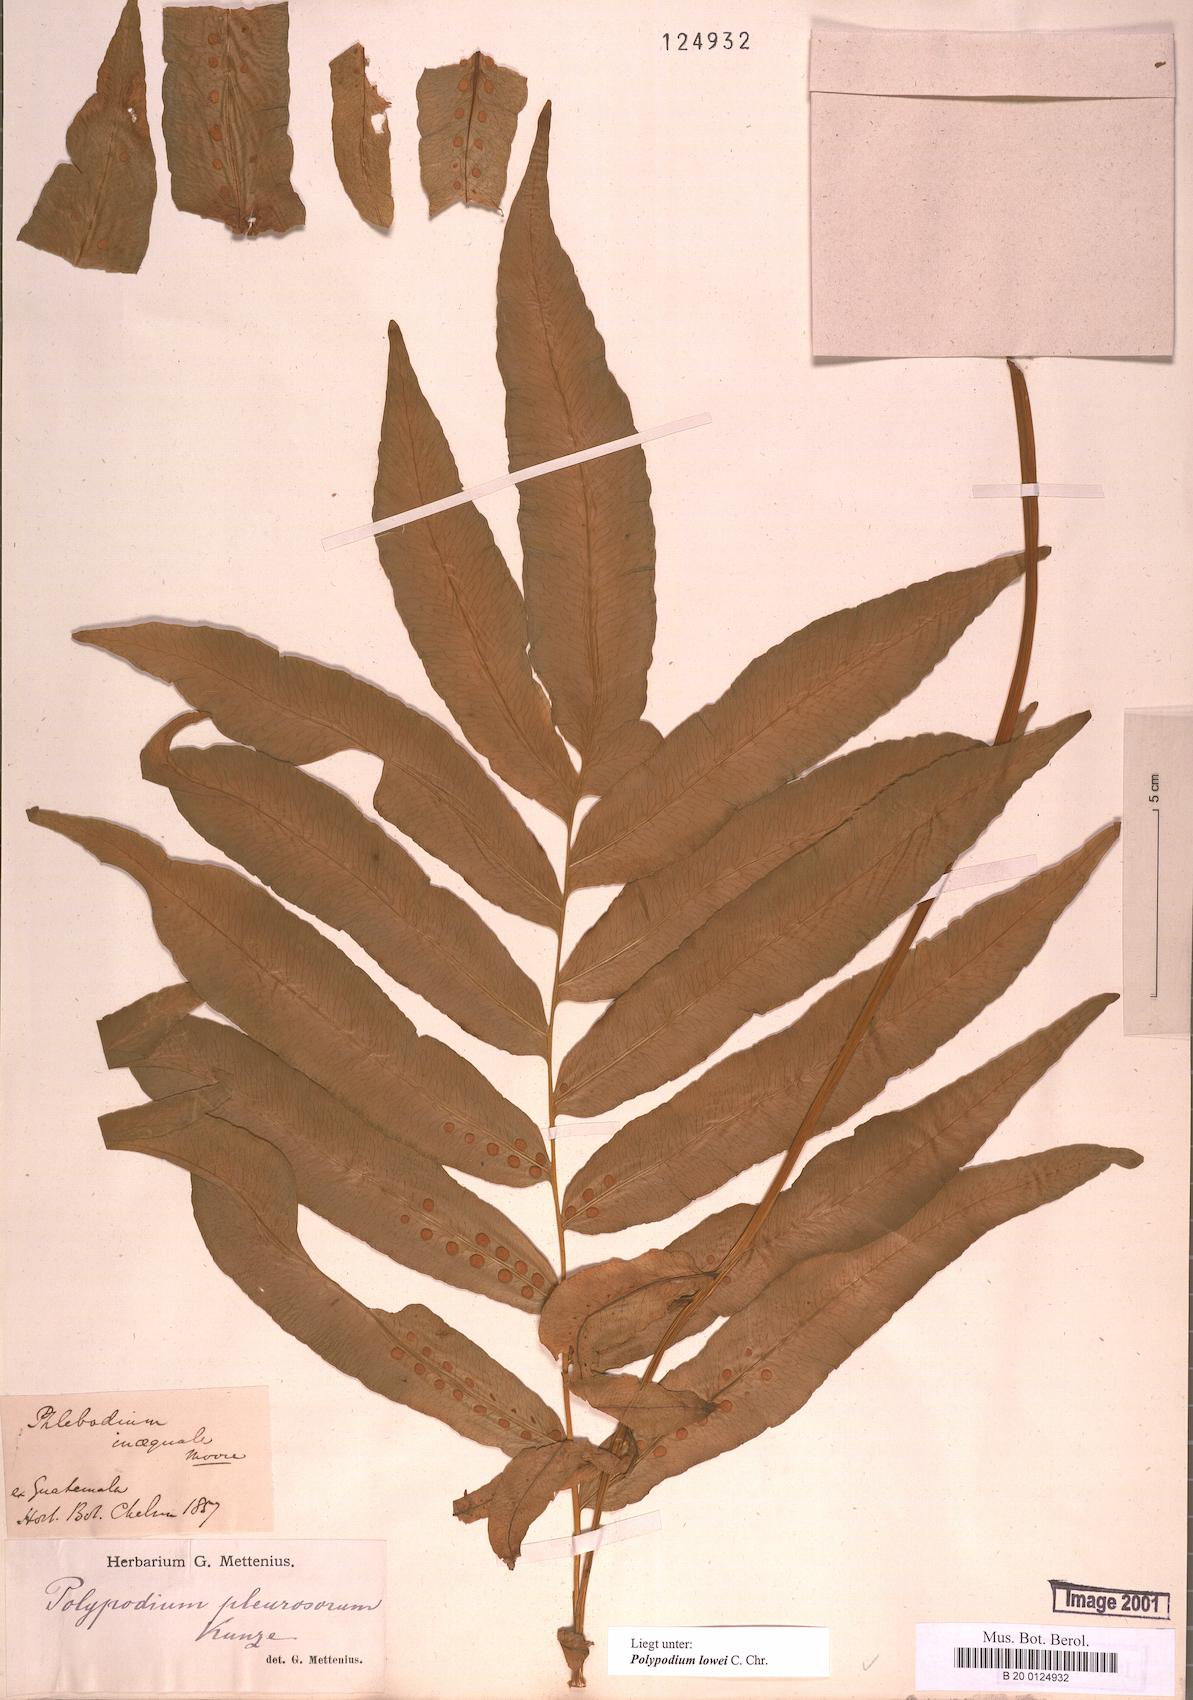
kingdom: Plantae
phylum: Tracheophyta
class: Polypodiopsida
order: Polypodiales
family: Polypodiaceae
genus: Polypodium
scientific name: Polypodium pleurosorum
